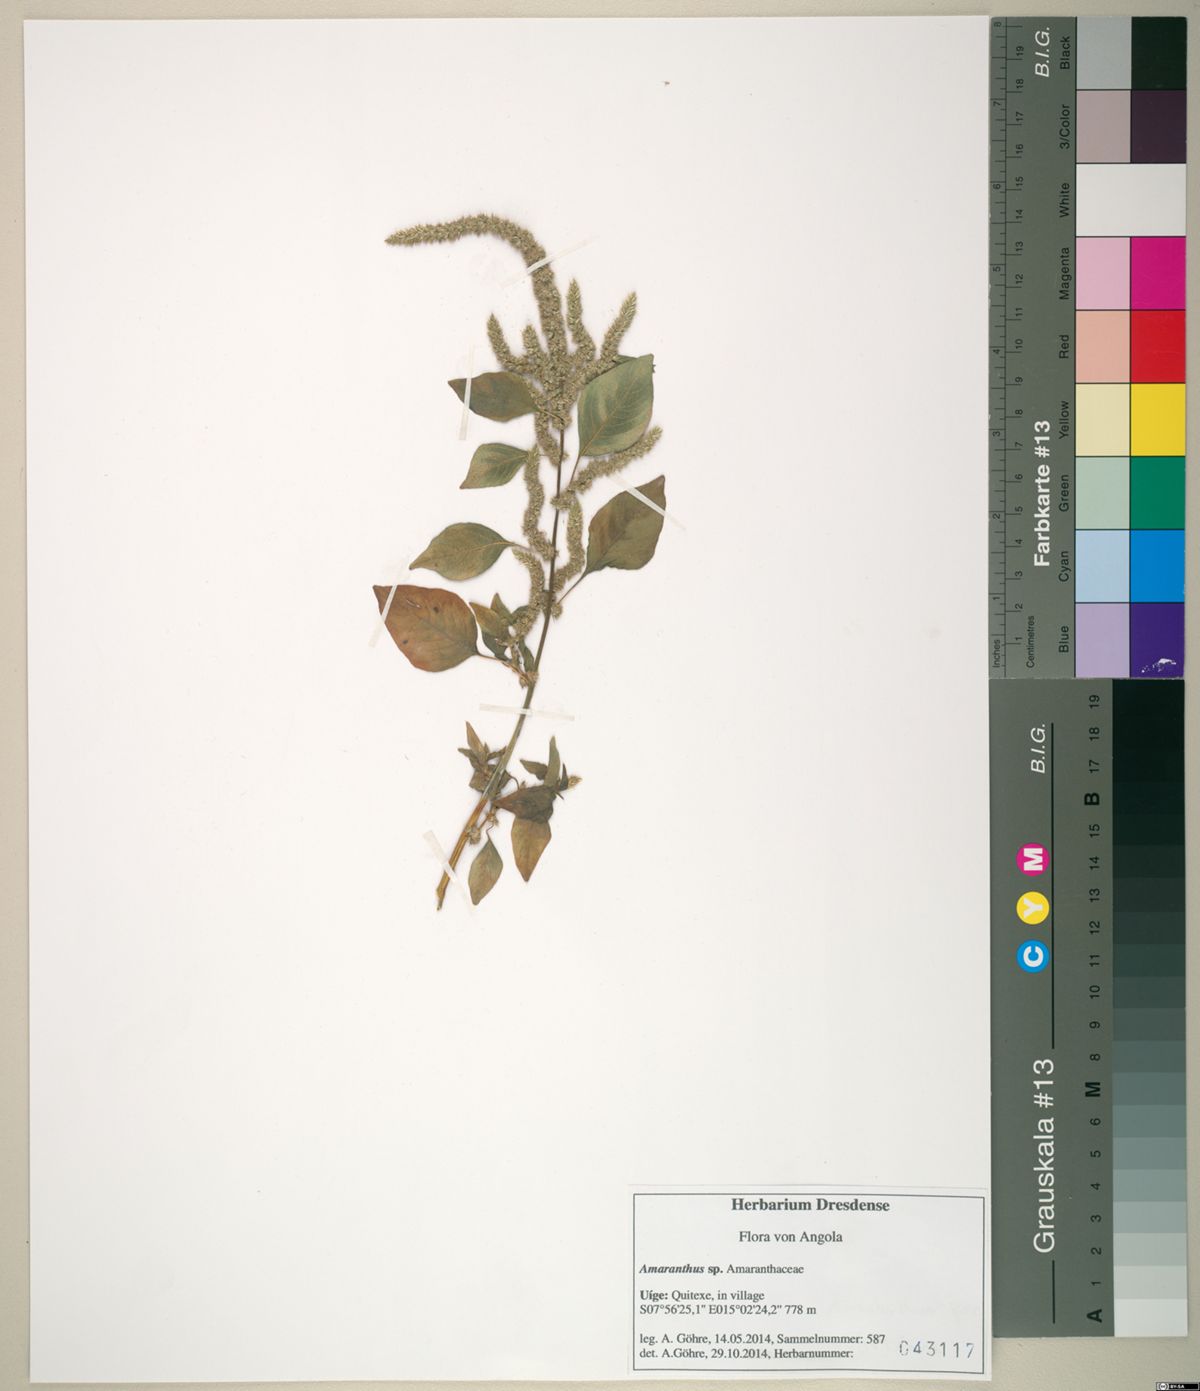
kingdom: Plantae
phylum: Tracheophyta
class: Magnoliopsida
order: Caryophyllales
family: Amaranthaceae
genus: Amaranthus
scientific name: Amaranthus tricolor
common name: Joseph's-coat
